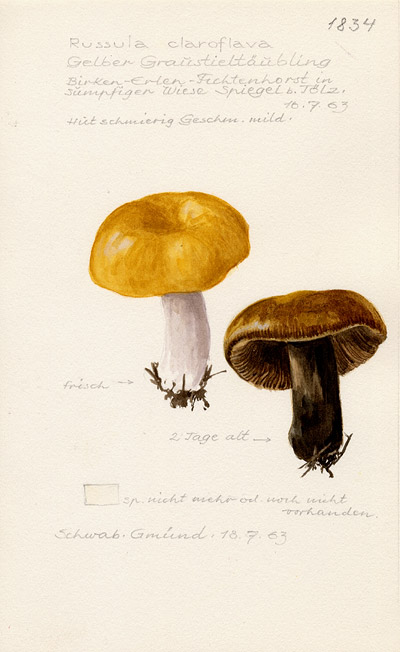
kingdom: Fungi
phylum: Basidiomycota
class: Agaricomycetes
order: Russulales
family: Russulaceae
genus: Russula
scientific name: Russula claroflava
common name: The yellow swamp brittlegill
